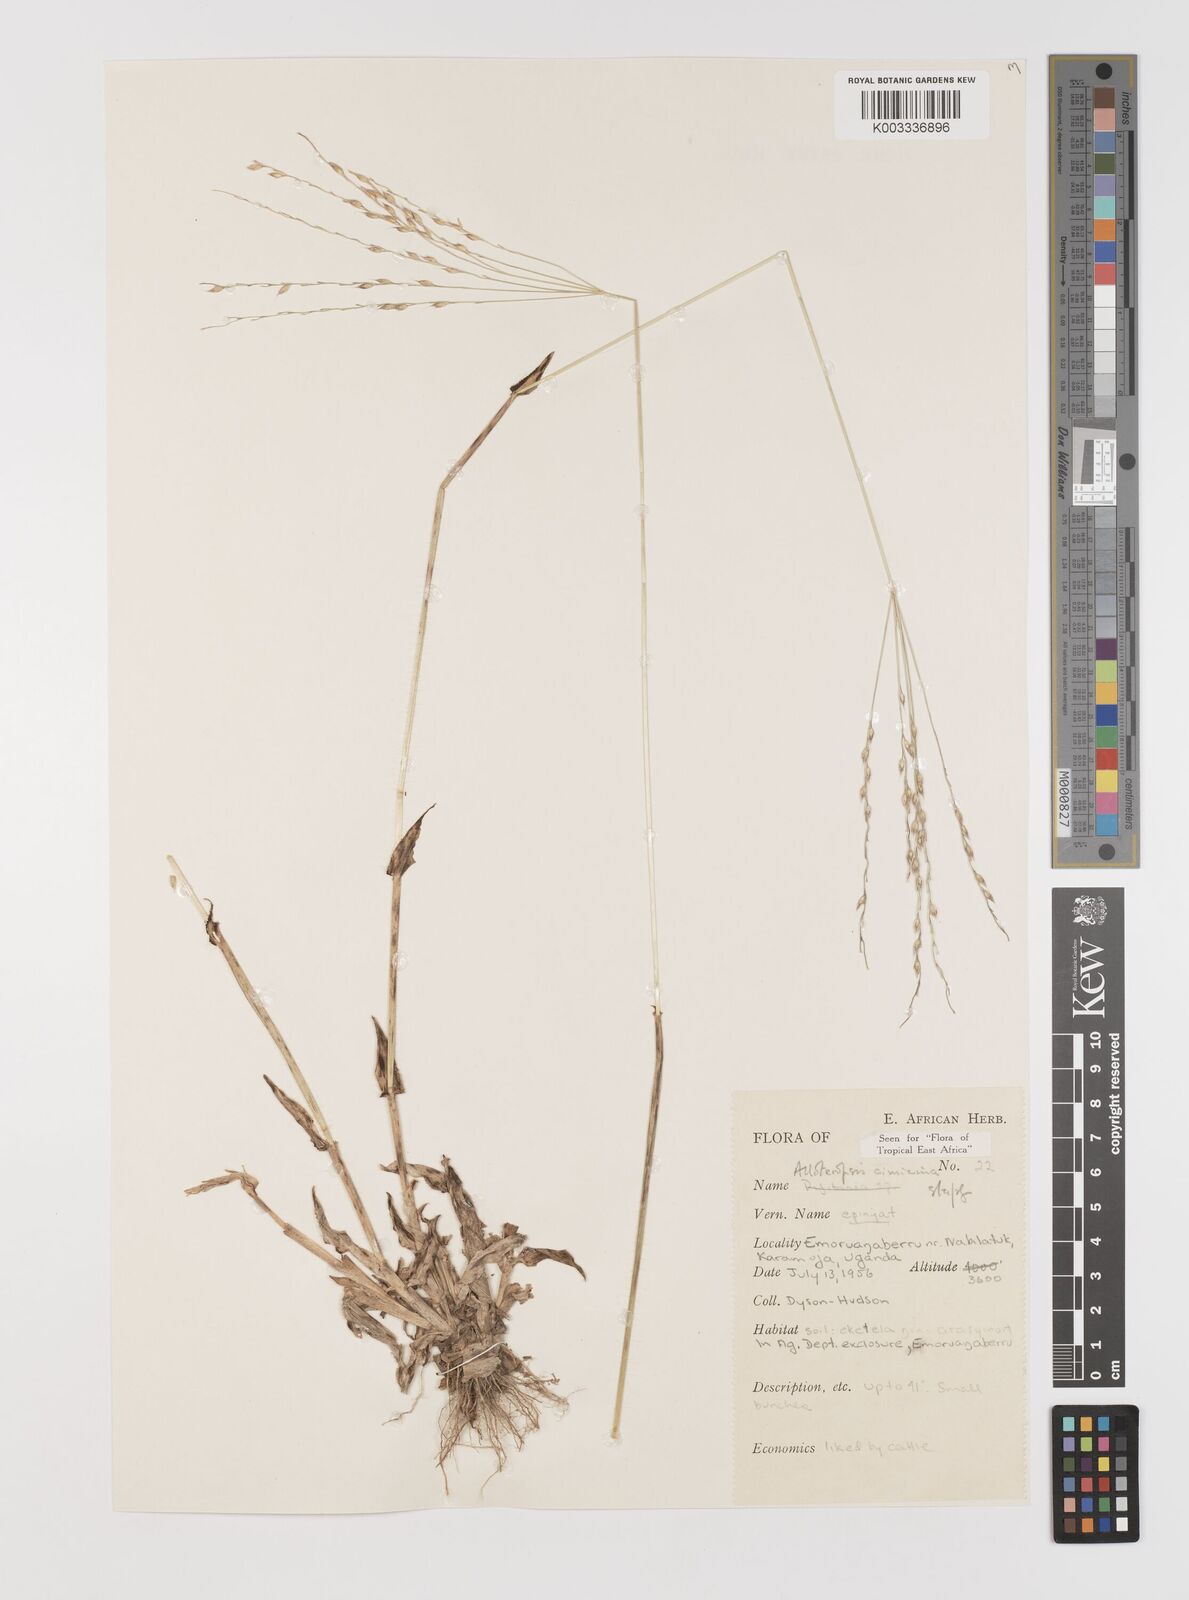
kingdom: Plantae
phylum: Tracheophyta
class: Liliopsida
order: Poales
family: Poaceae
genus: Alloteropsis
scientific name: Alloteropsis cimicina
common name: Summergrass
